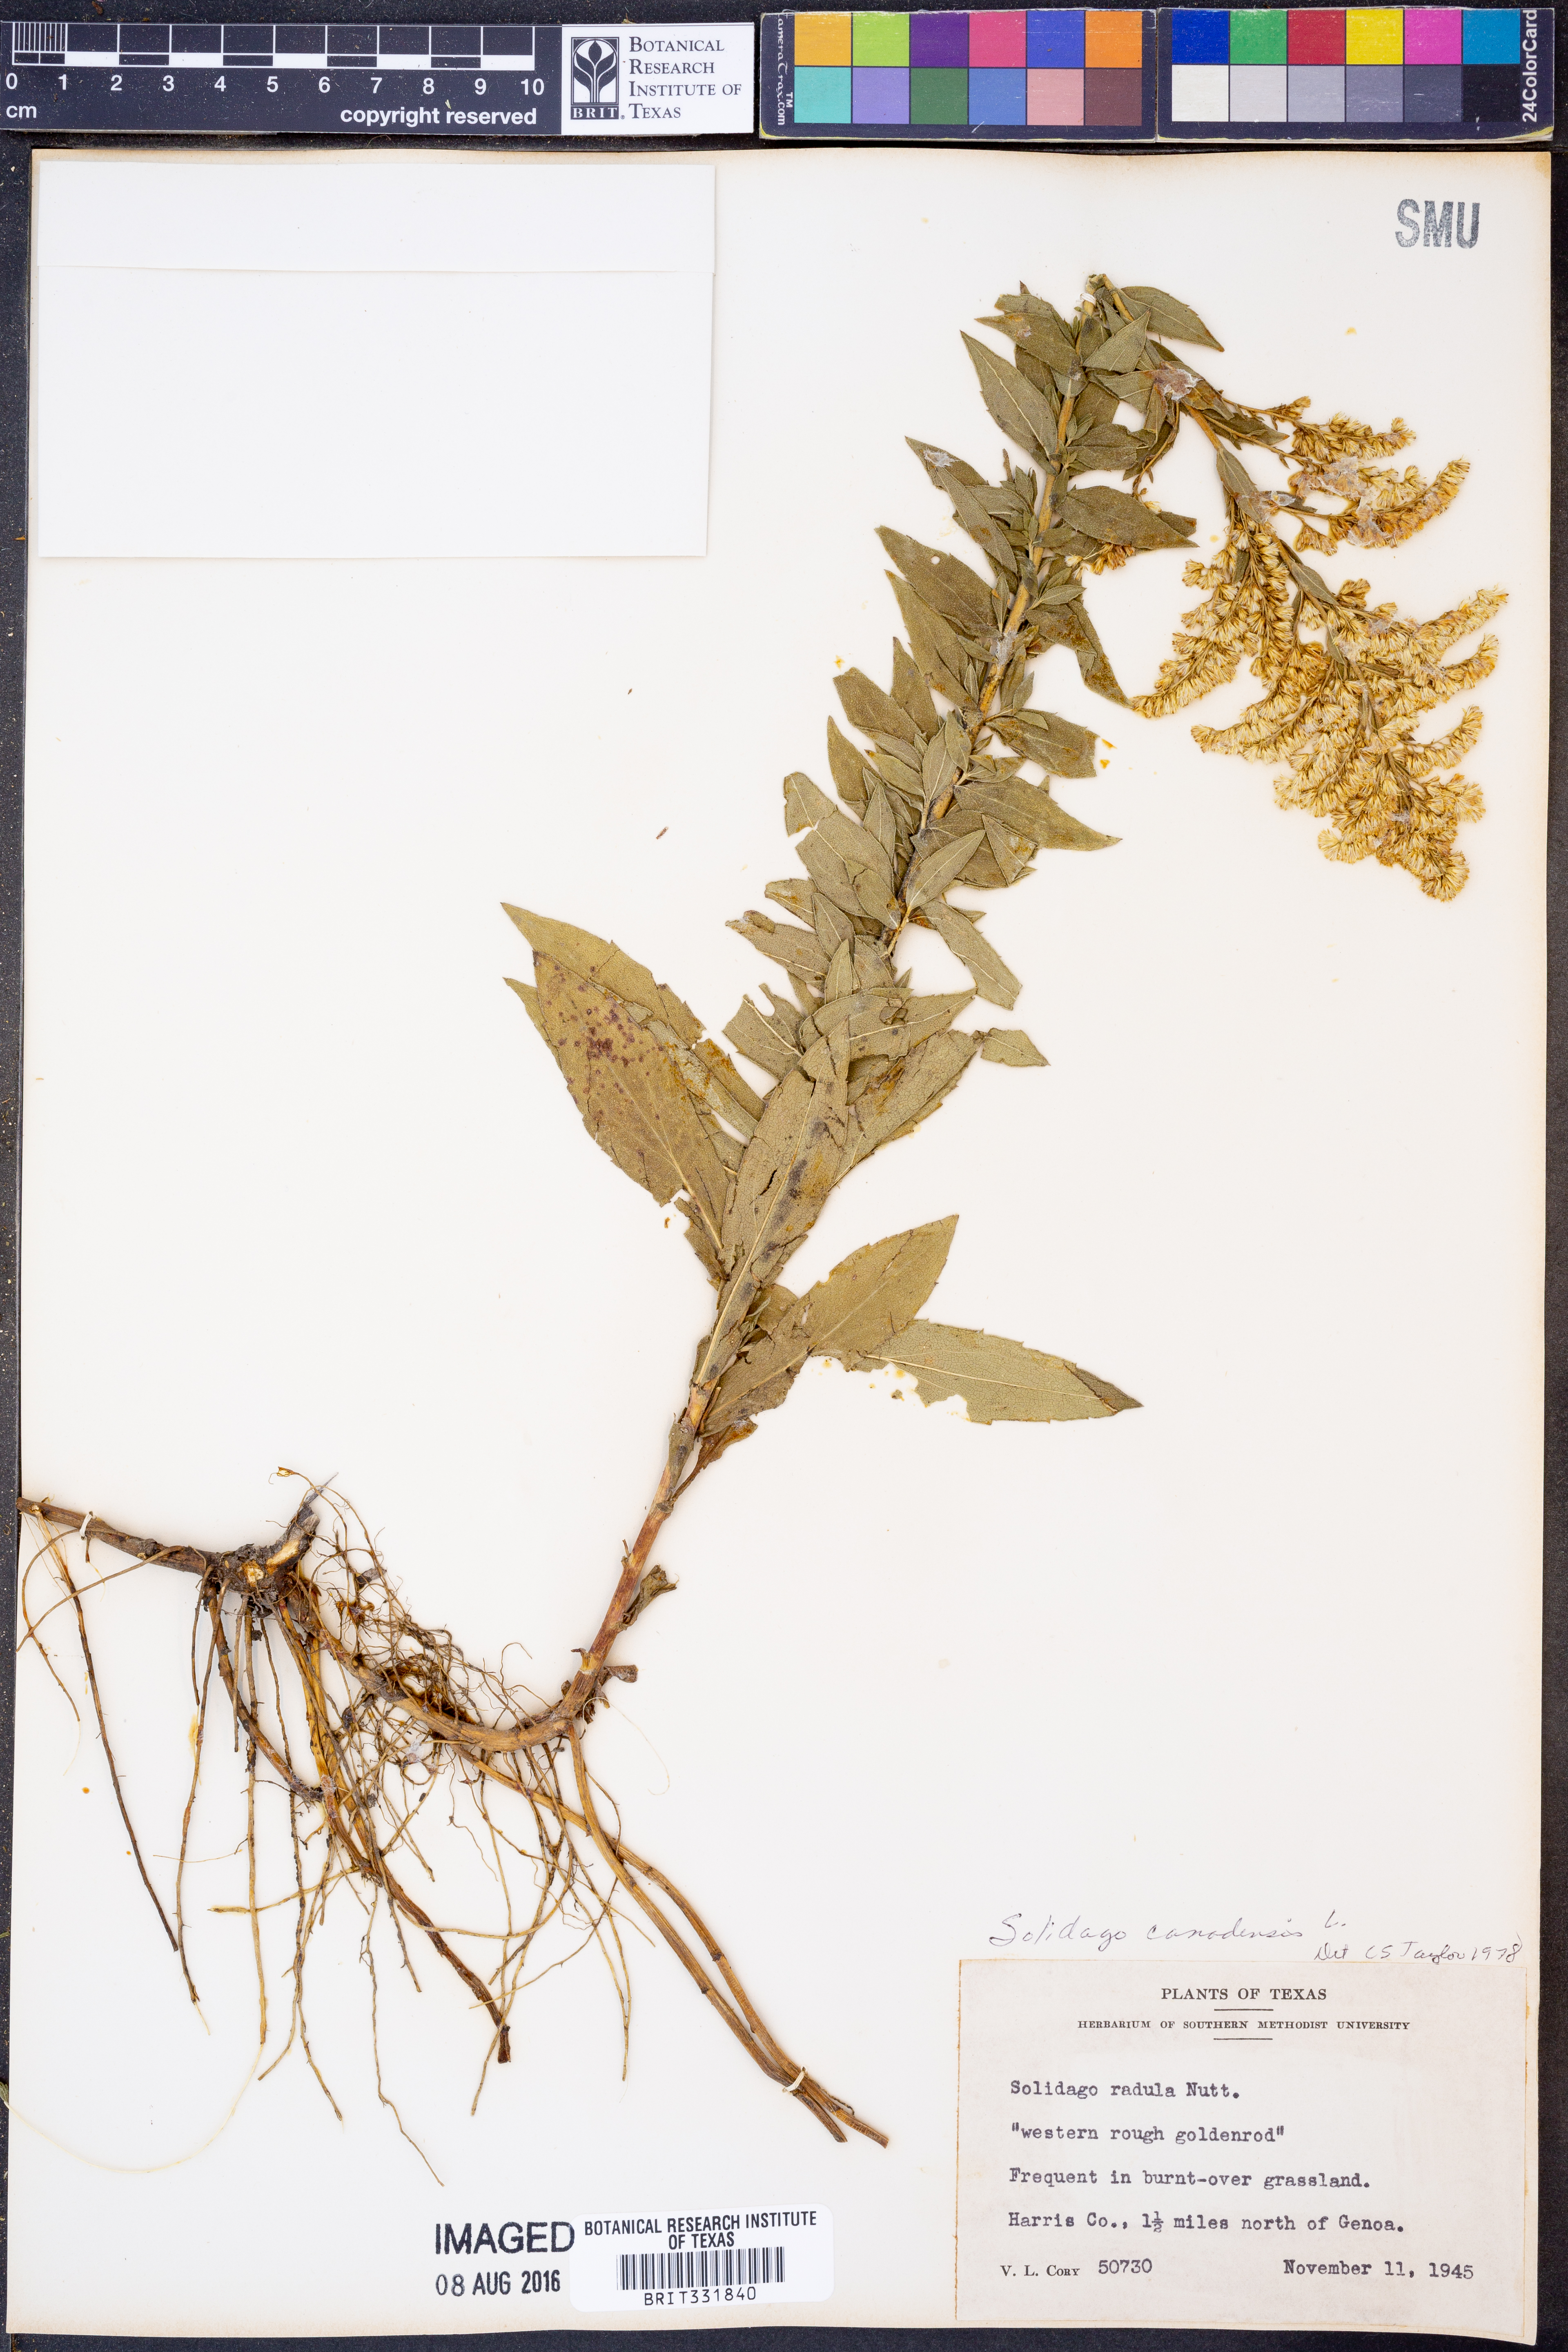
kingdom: Plantae
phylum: Tracheophyta
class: Magnoliopsida
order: Asterales
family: Asteraceae
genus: Solidago
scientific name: Solidago canadensis
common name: Canada goldenrod
